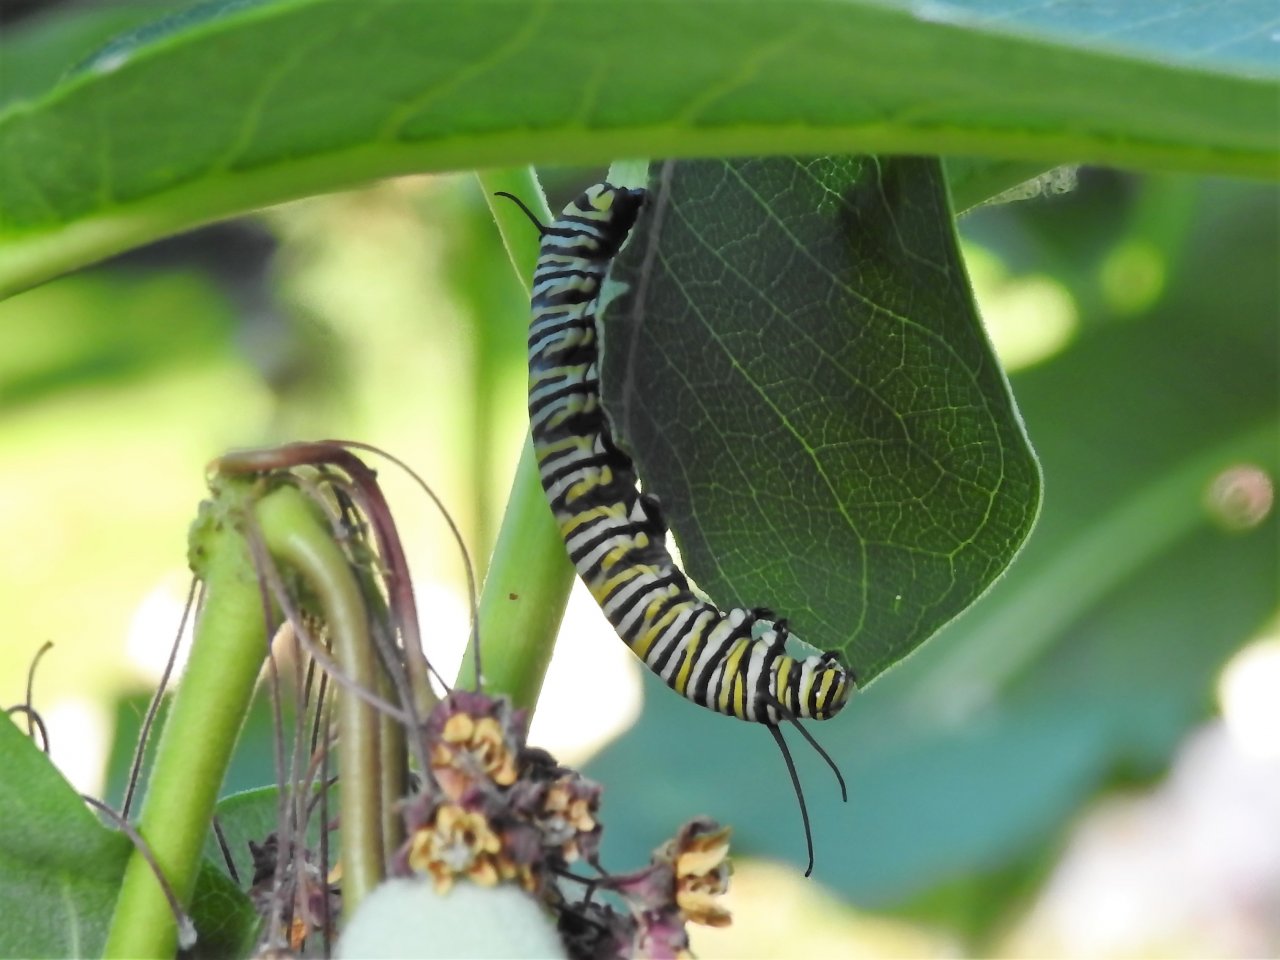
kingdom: Animalia
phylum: Arthropoda
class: Insecta
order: Lepidoptera
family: Nymphalidae
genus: Danaus
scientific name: Danaus plexippus
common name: Monarch
